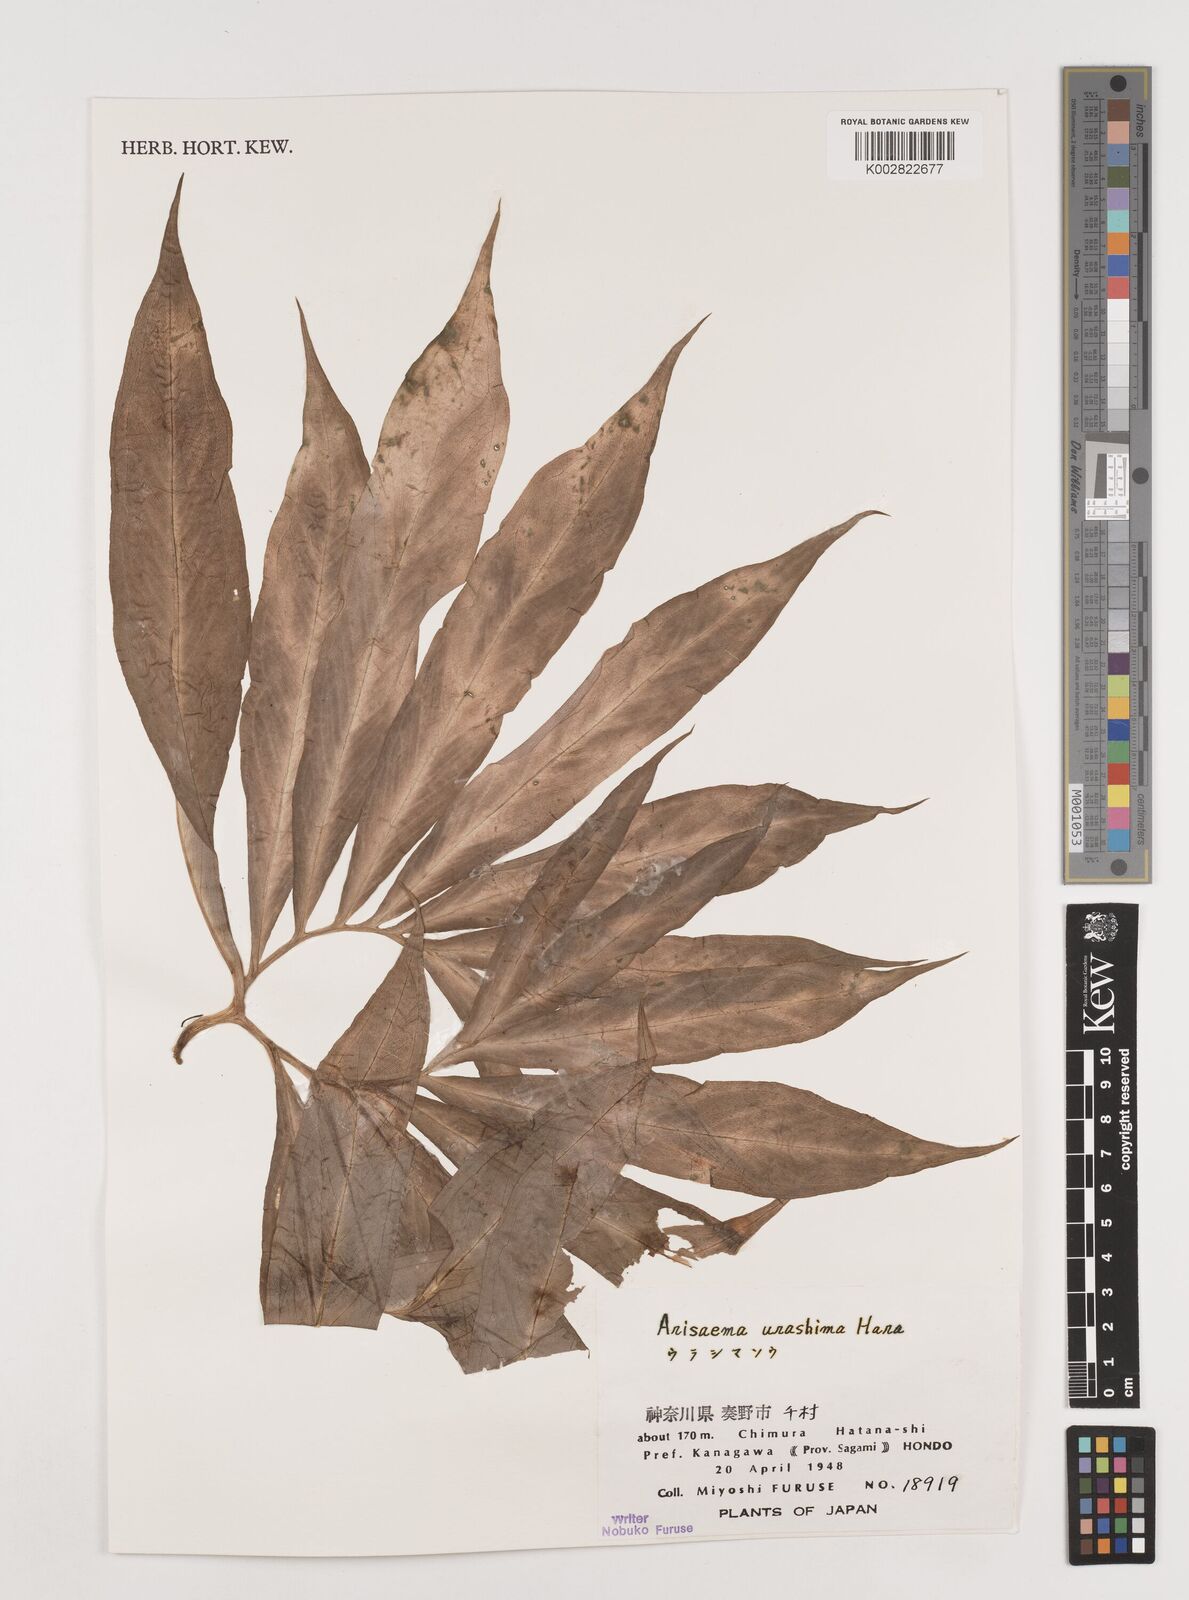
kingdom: Plantae
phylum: Tracheophyta
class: Liliopsida
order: Alismatales
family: Araceae
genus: Arisaema
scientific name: Arisaema
